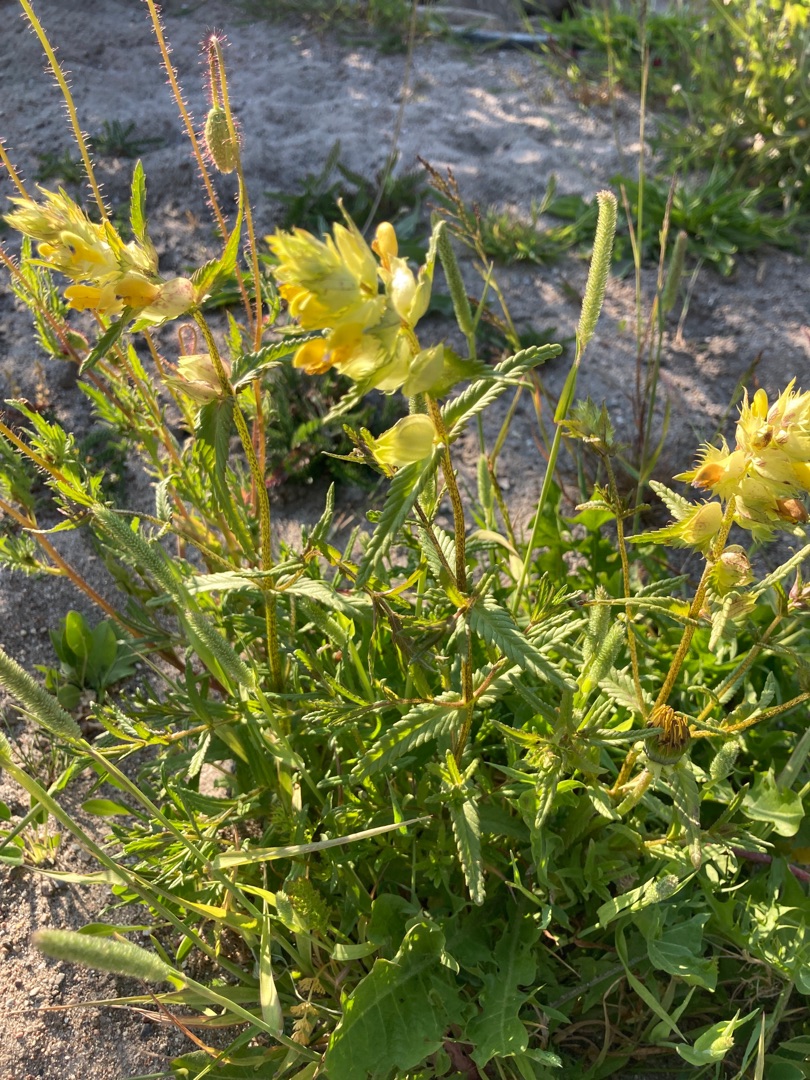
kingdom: Plantae
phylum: Tracheophyta
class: Magnoliopsida
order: Lamiales
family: Orobanchaceae
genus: Rhinanthus
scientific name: Rhinanthus
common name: Stor skjaller
